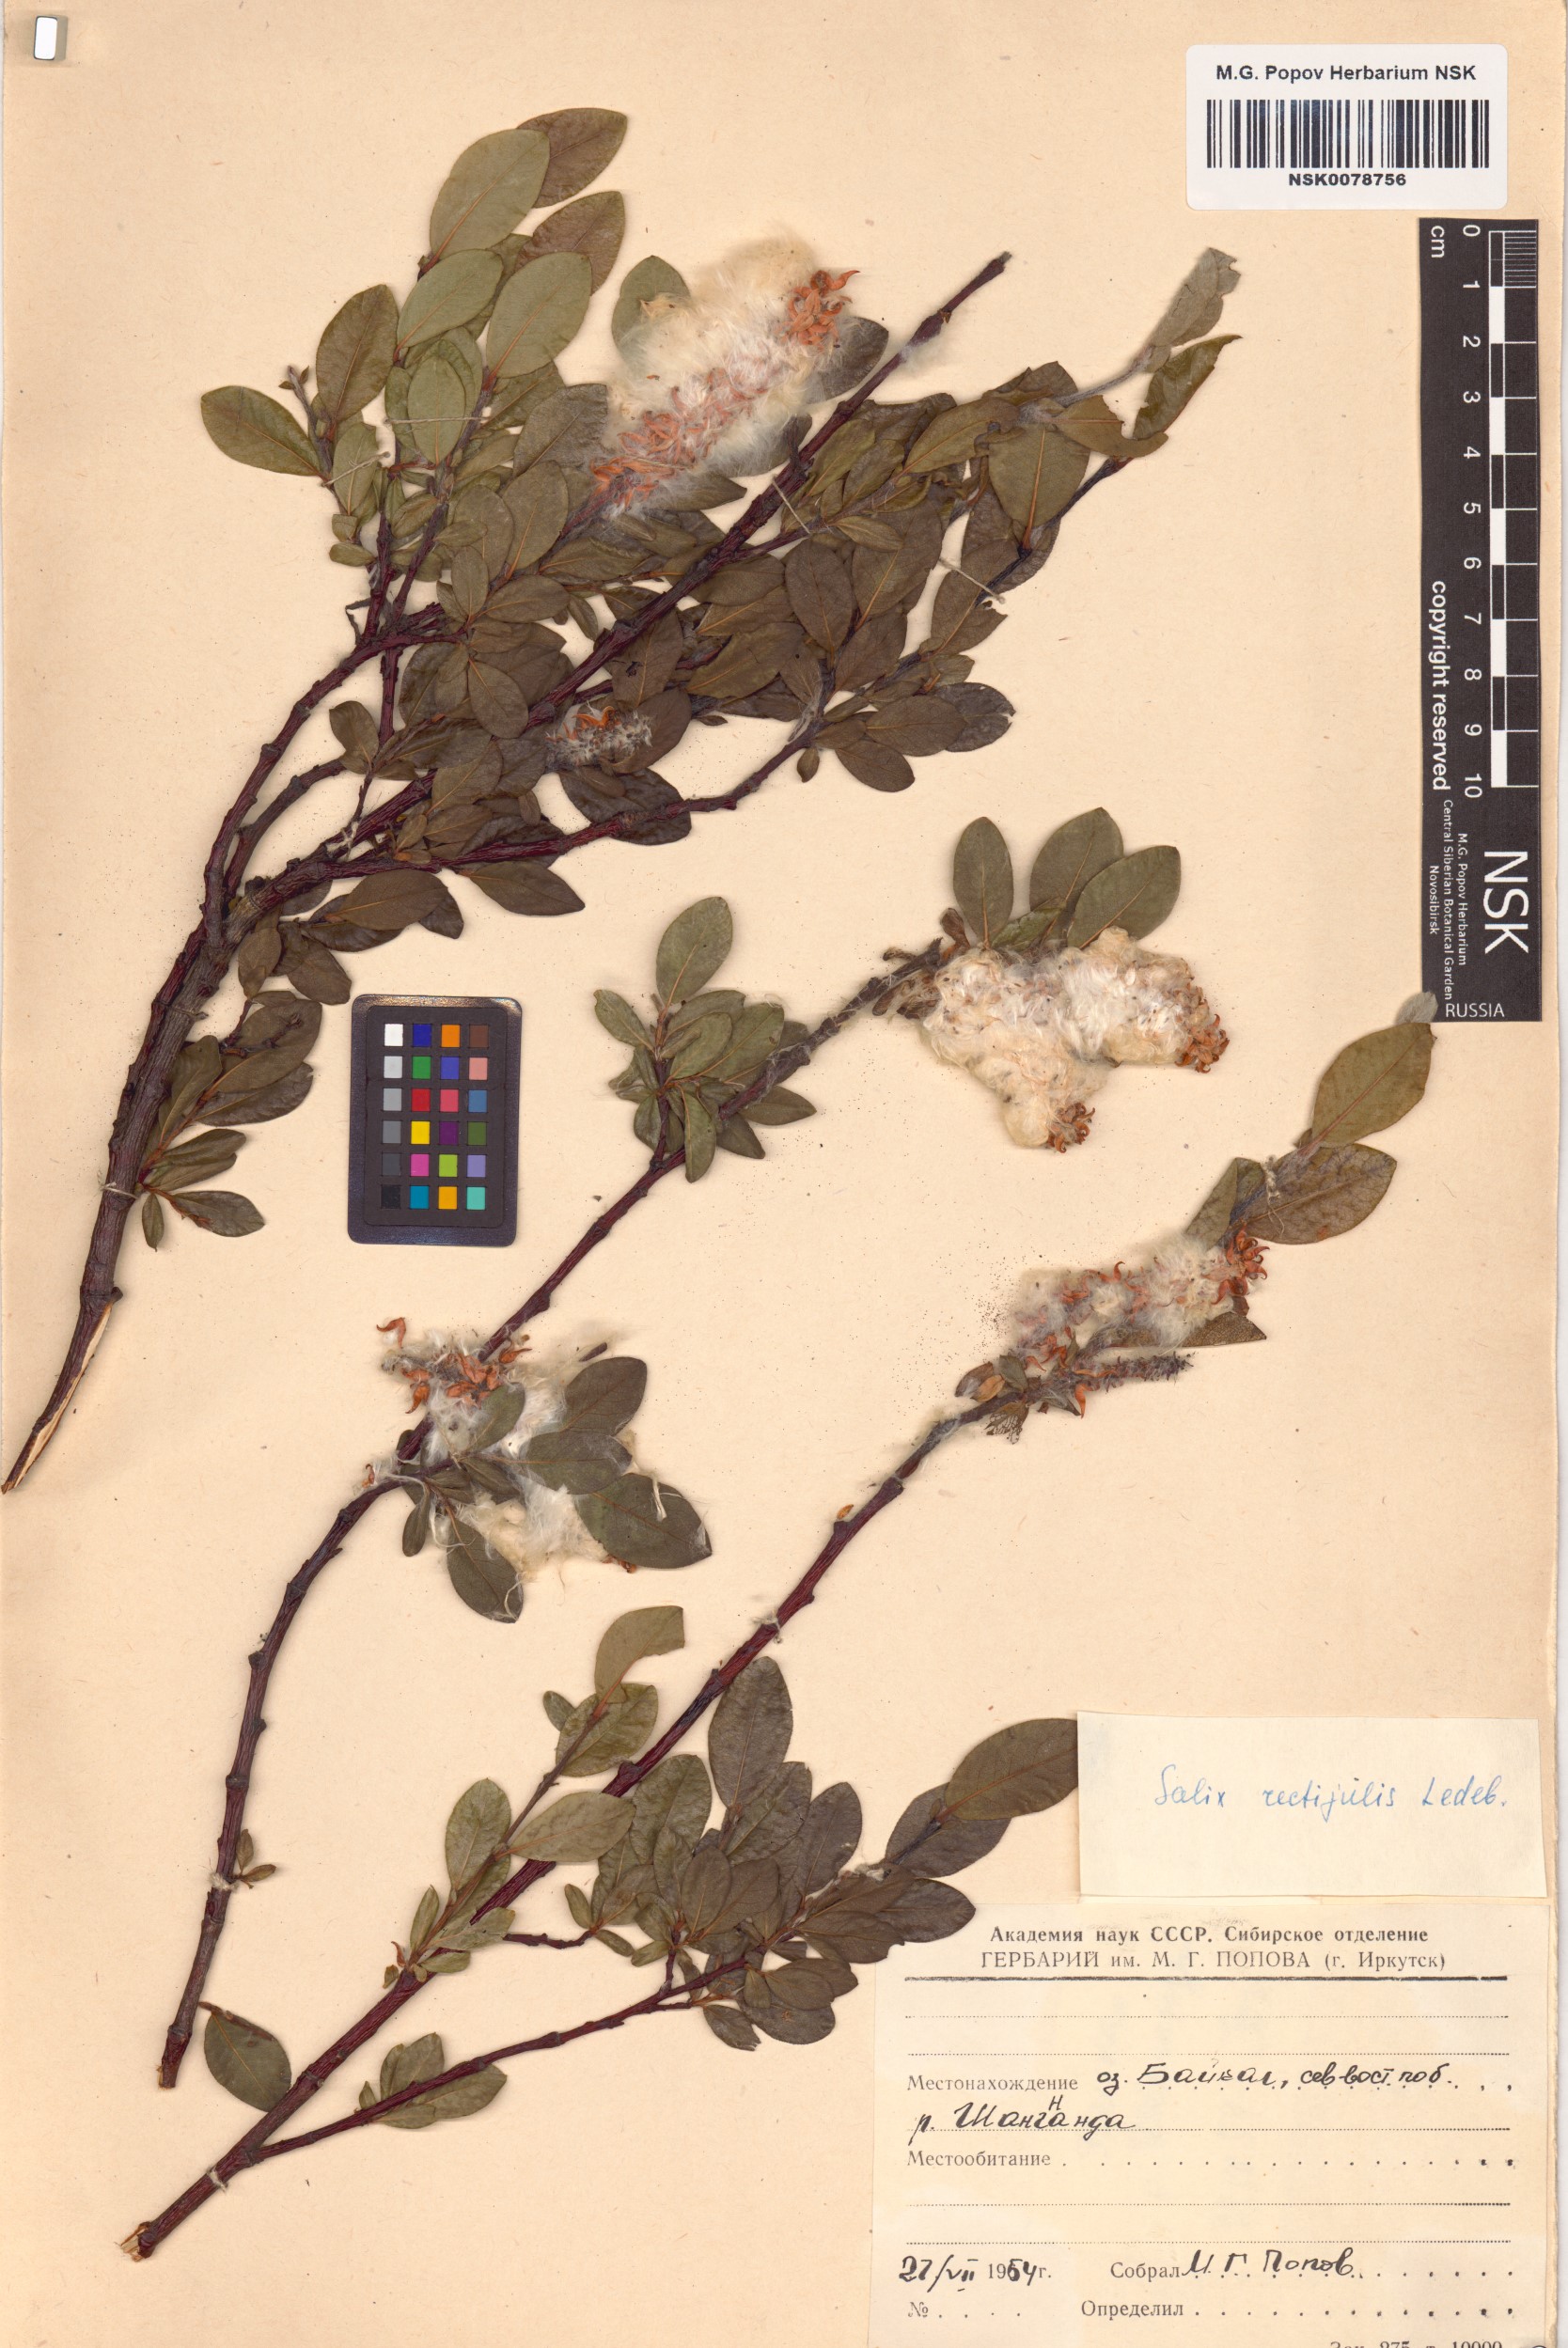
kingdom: Plantae
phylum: Tracheophyta
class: Magnoliopsida
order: Malpighiales
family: Salicaceae
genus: Salix
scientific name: Salix rectijulis
